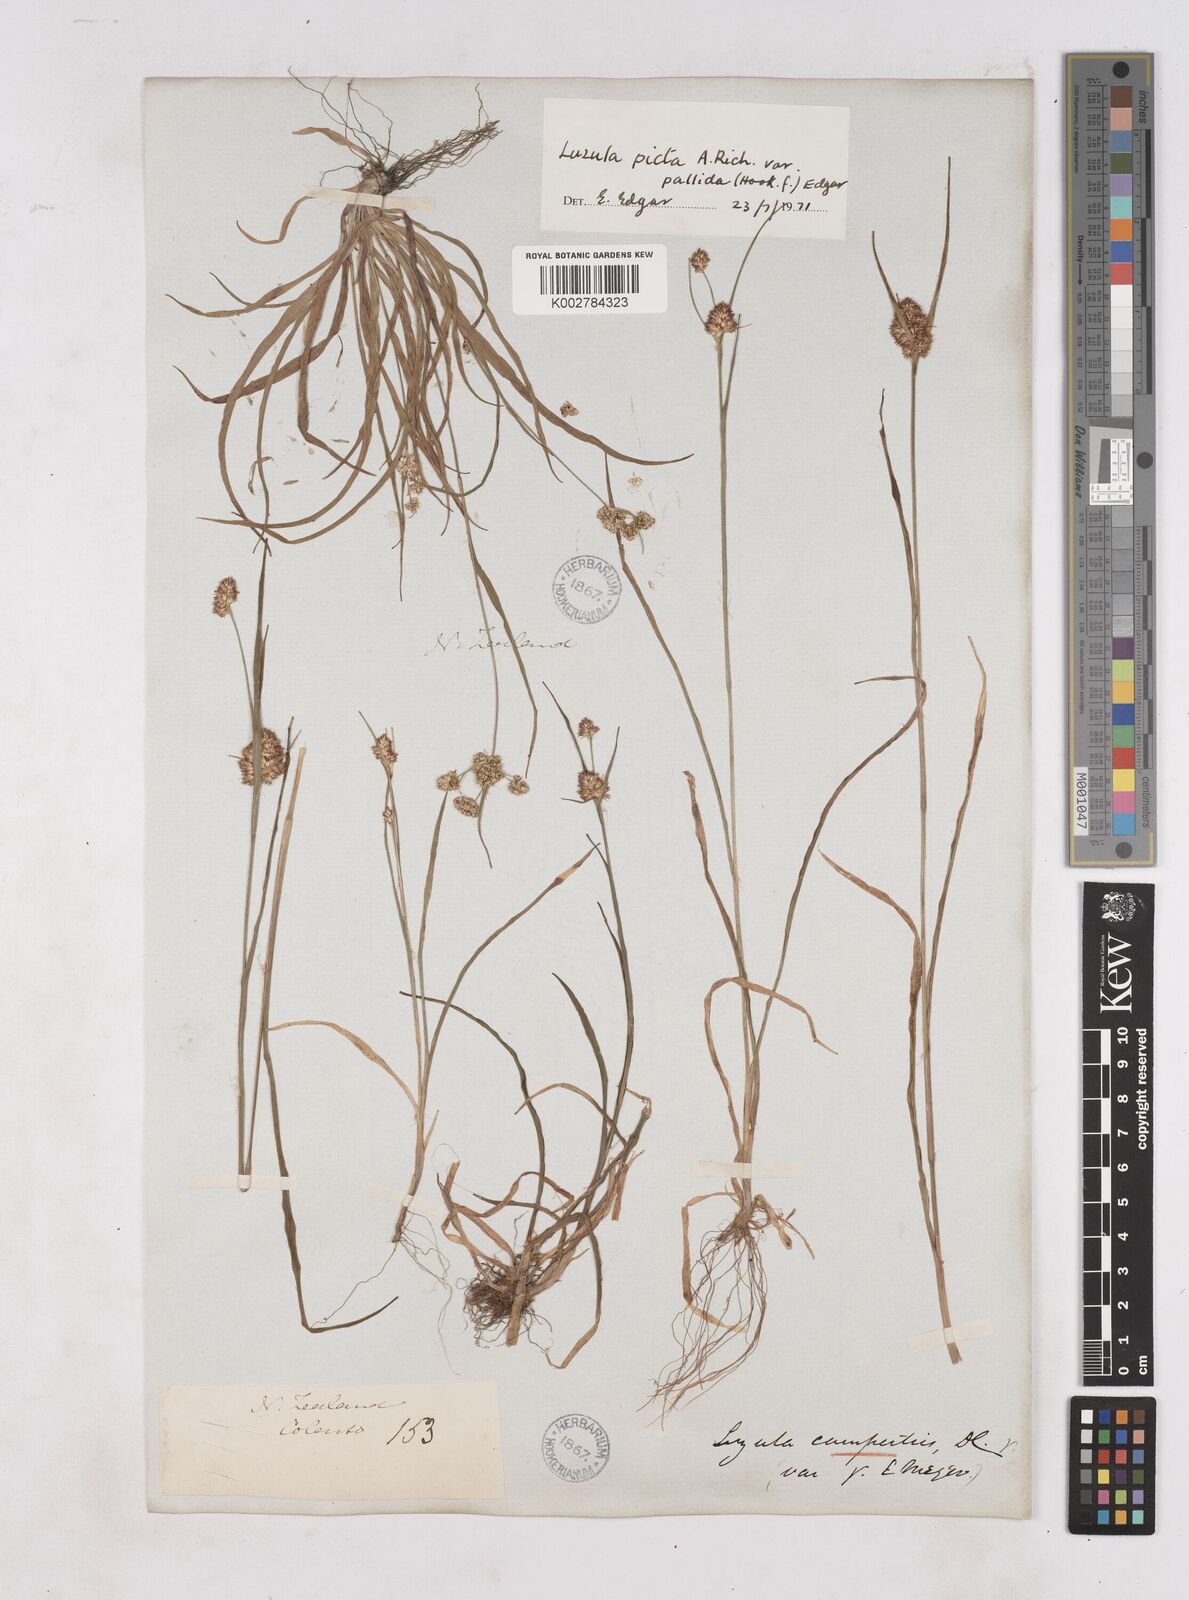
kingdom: Plantae
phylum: Tracheophyta
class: Liliopsida
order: Poales
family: Juncaceae
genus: Luzula
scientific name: Luzula picta
